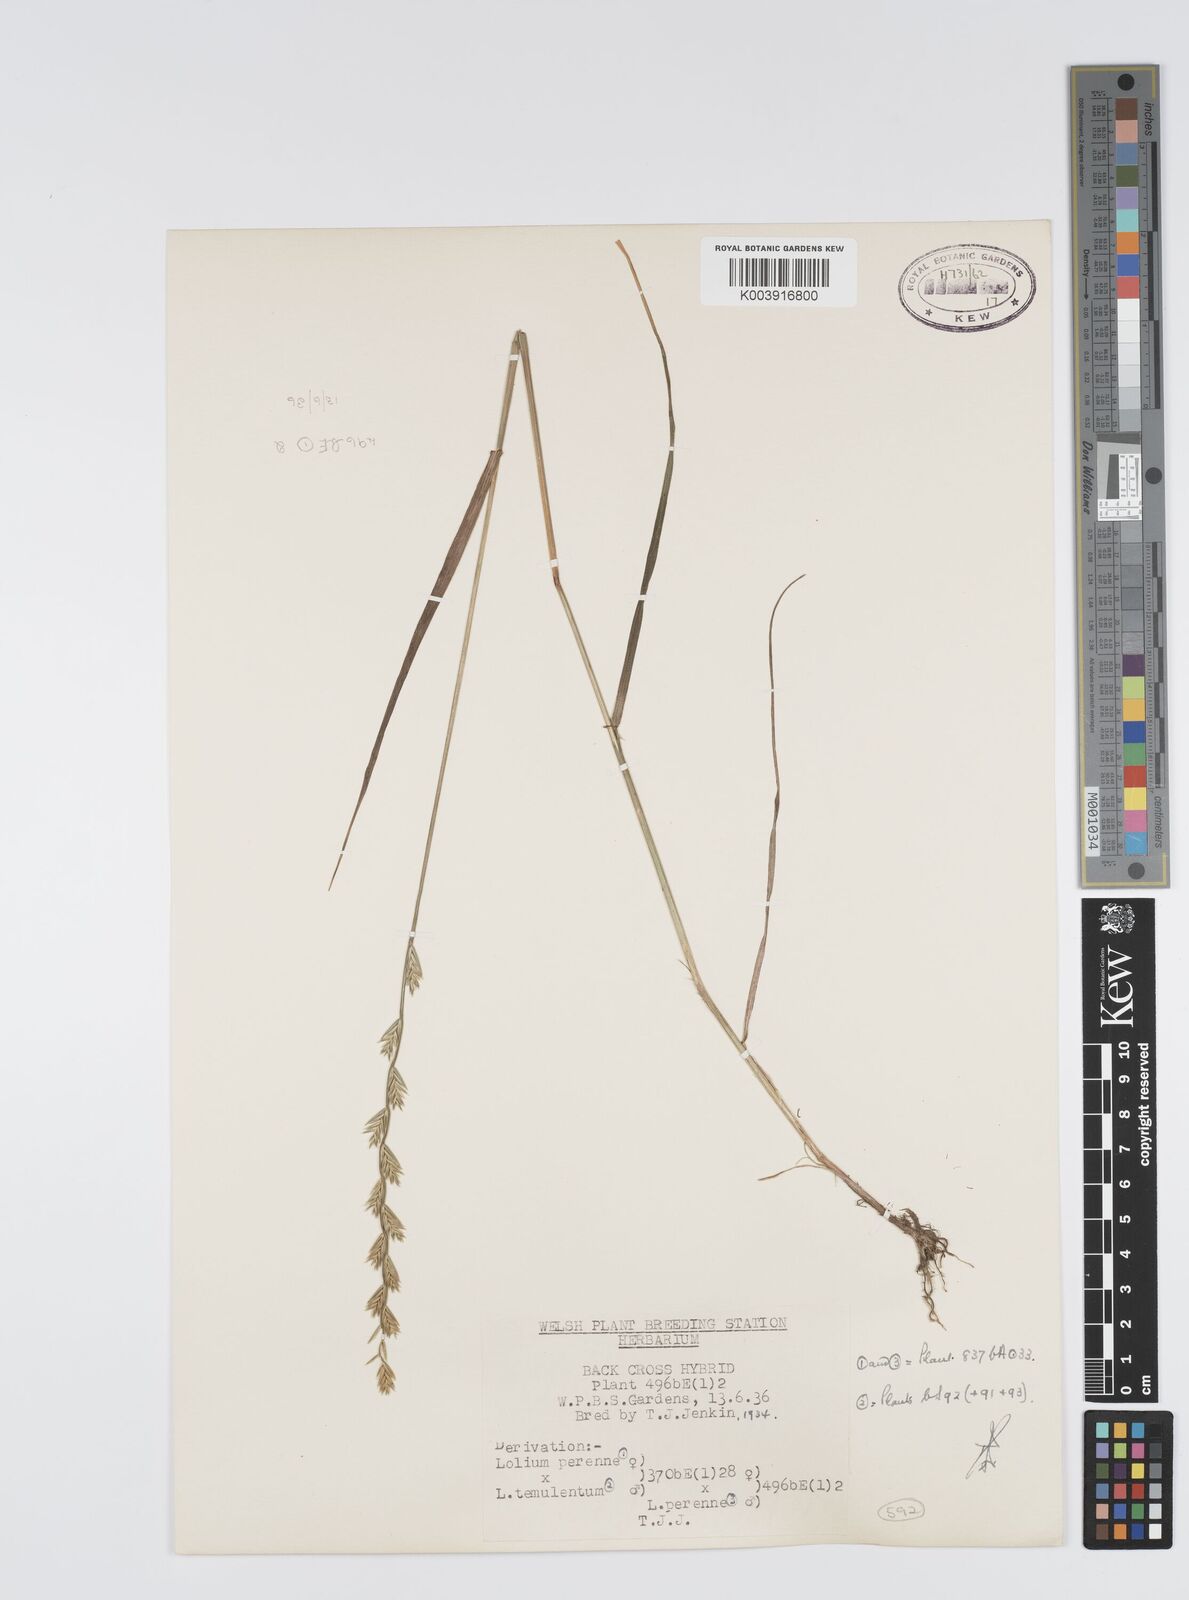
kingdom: Plantae
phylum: Tracheophyta
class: Liliopsida
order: Poales
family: Poaceae
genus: Lolium
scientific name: Lolium perenne
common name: Perennial ryegrass
